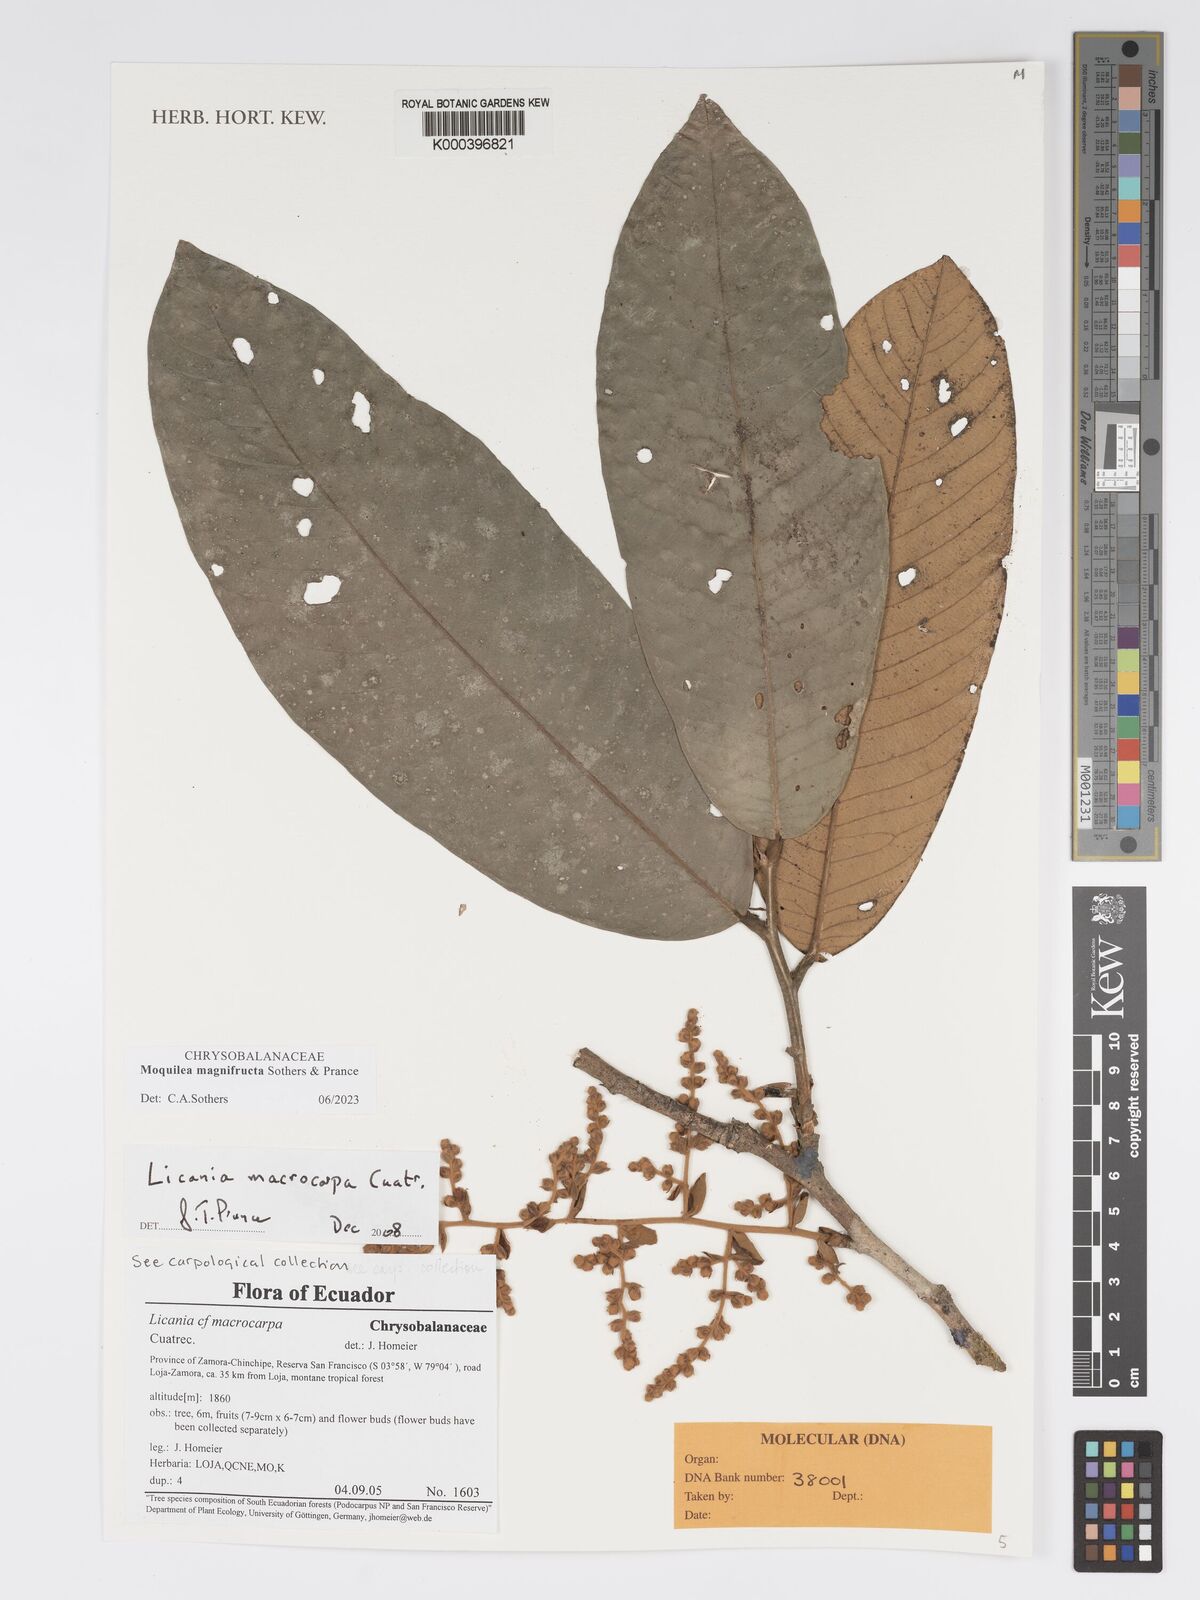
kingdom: Plantae
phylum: Tracheophyta
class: Magnoliopsida
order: Malpighiales
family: Chrysobalanaceae
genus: Moquilea
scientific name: Moquilea magnifructa
